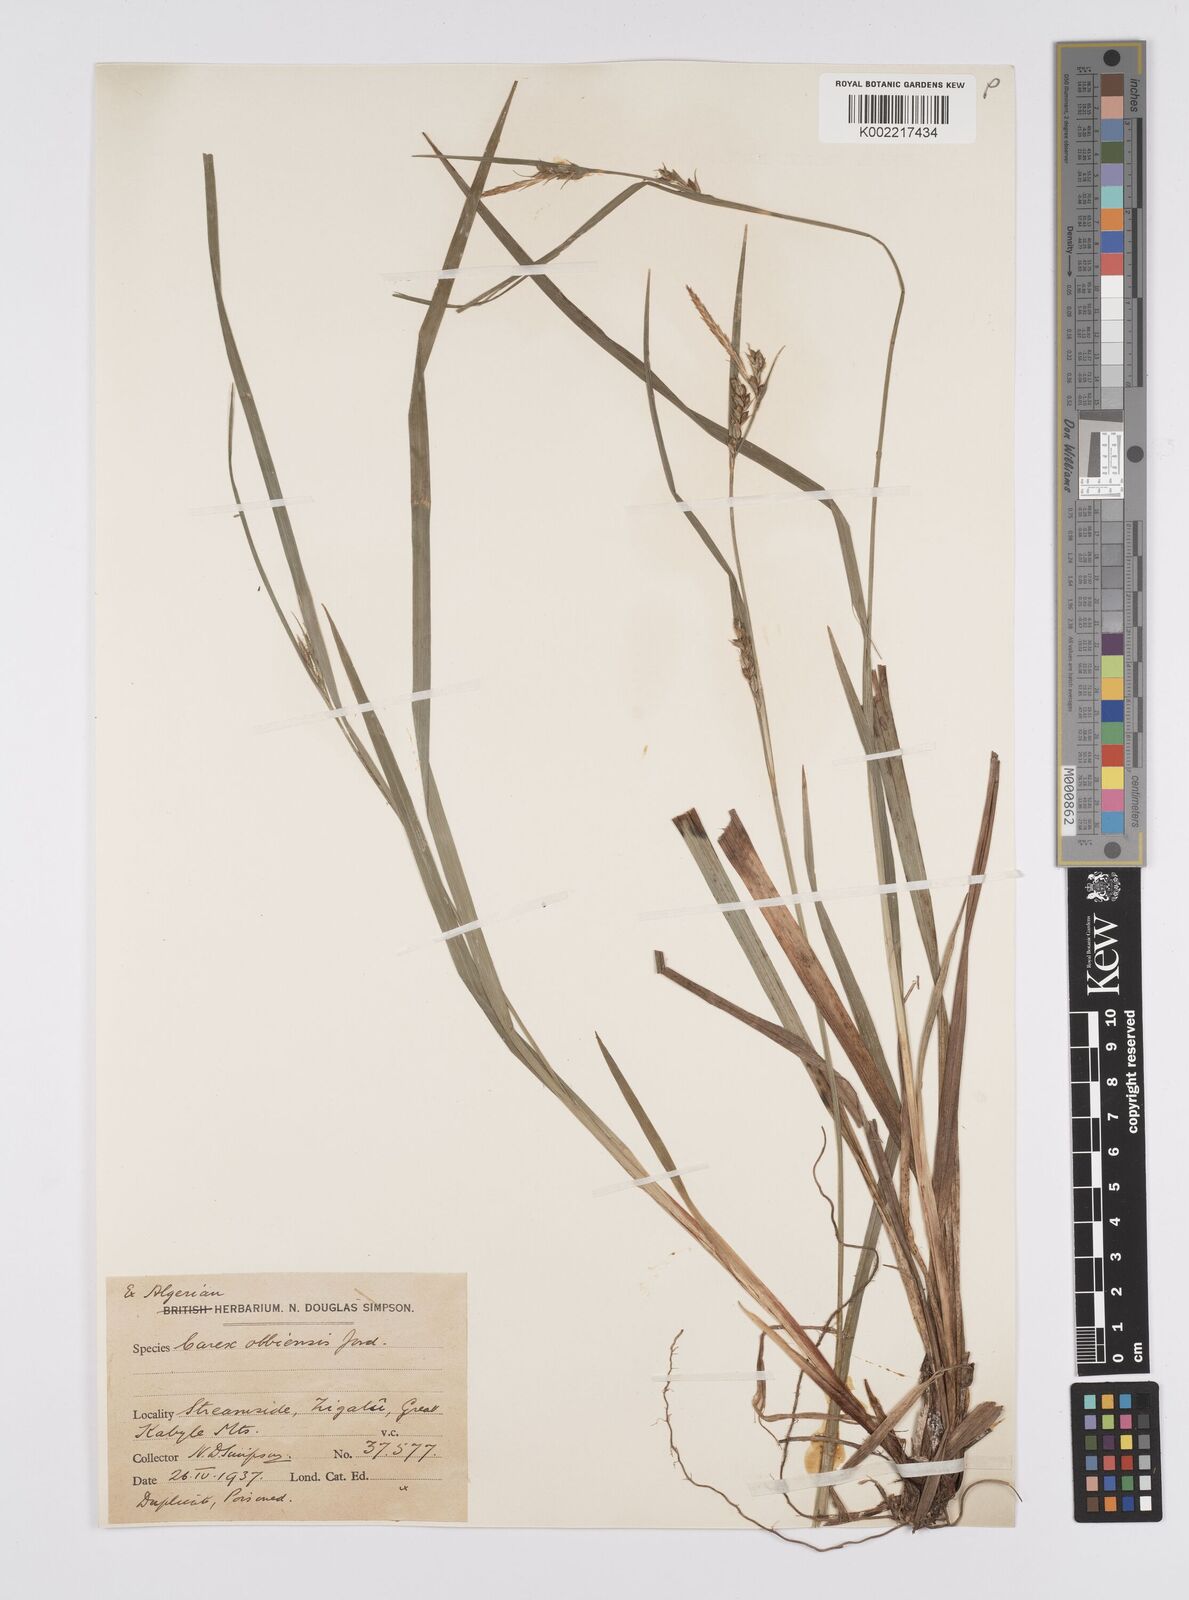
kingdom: Plantae
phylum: Tracheophyta
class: Liliopsida
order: Poales
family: Cyperaceae
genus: Carex
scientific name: Carex olbiensis
